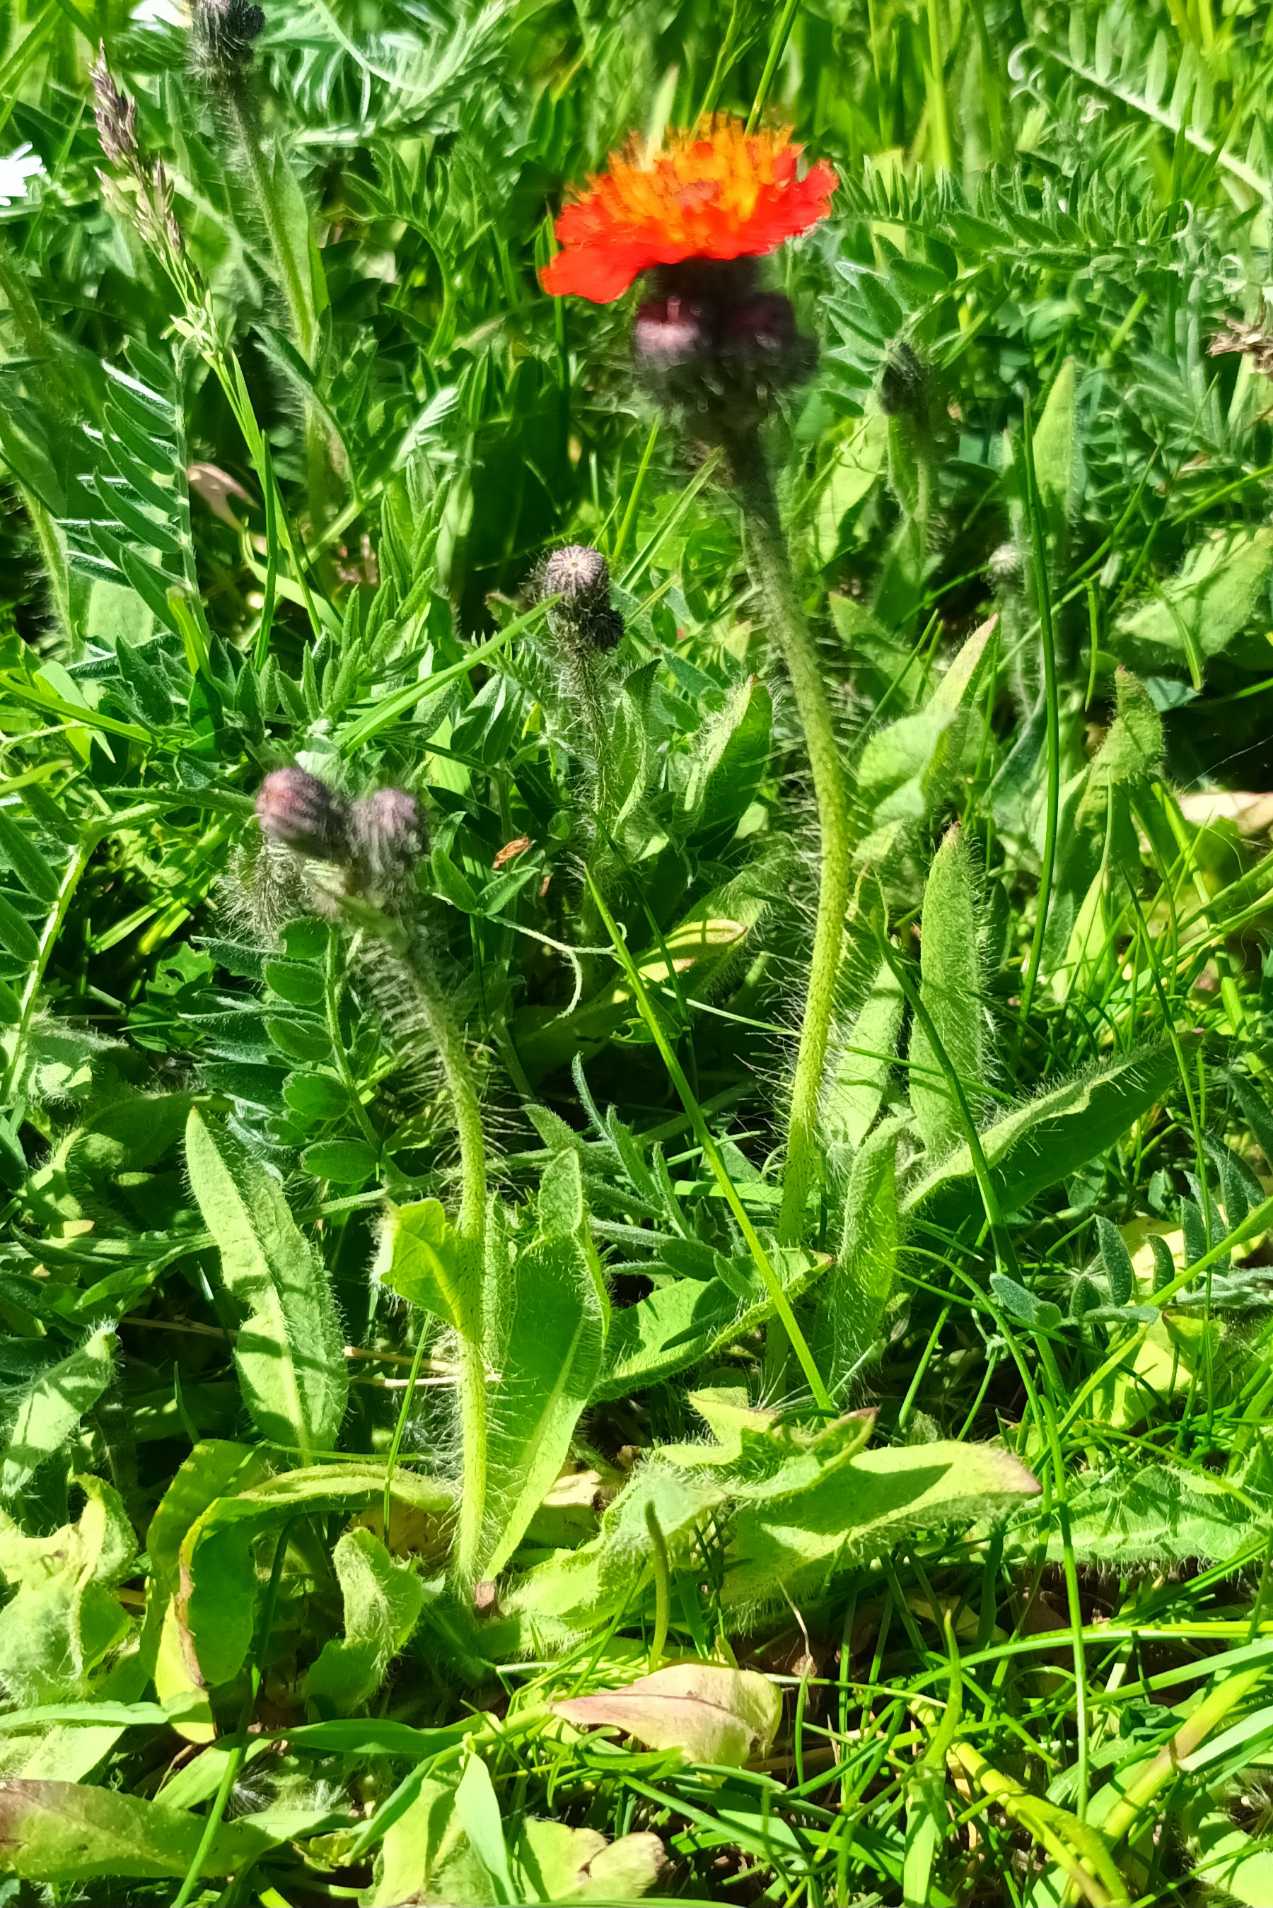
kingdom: Plantae
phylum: Tracheophyta
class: Magnoliopsida
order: Asterales
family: Asteraceae
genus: Pilosella
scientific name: Pilosella aurantiaca
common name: Pomerans-høgeurt
